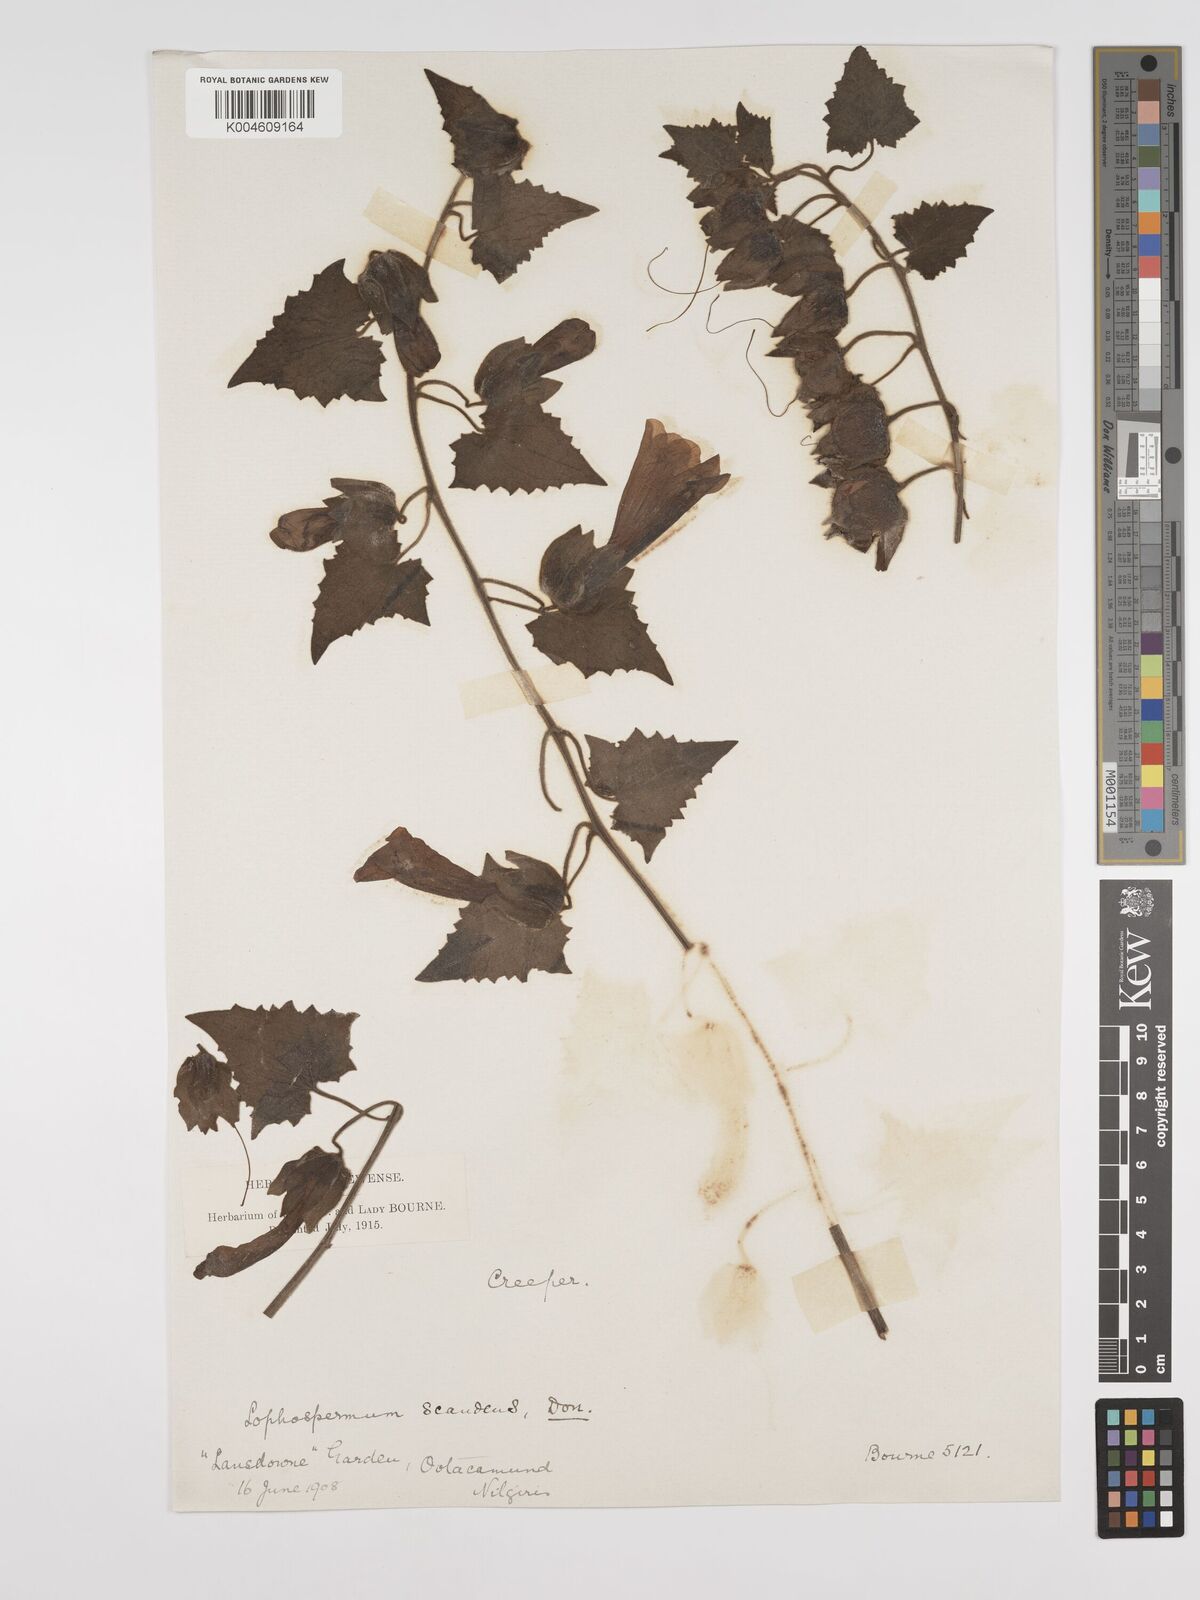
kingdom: Plantae
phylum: Tracheophyta
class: Magnoliopsida
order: Lamiales
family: Plantaginaceae
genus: Lophospermum
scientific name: Lophospermum erubescens
